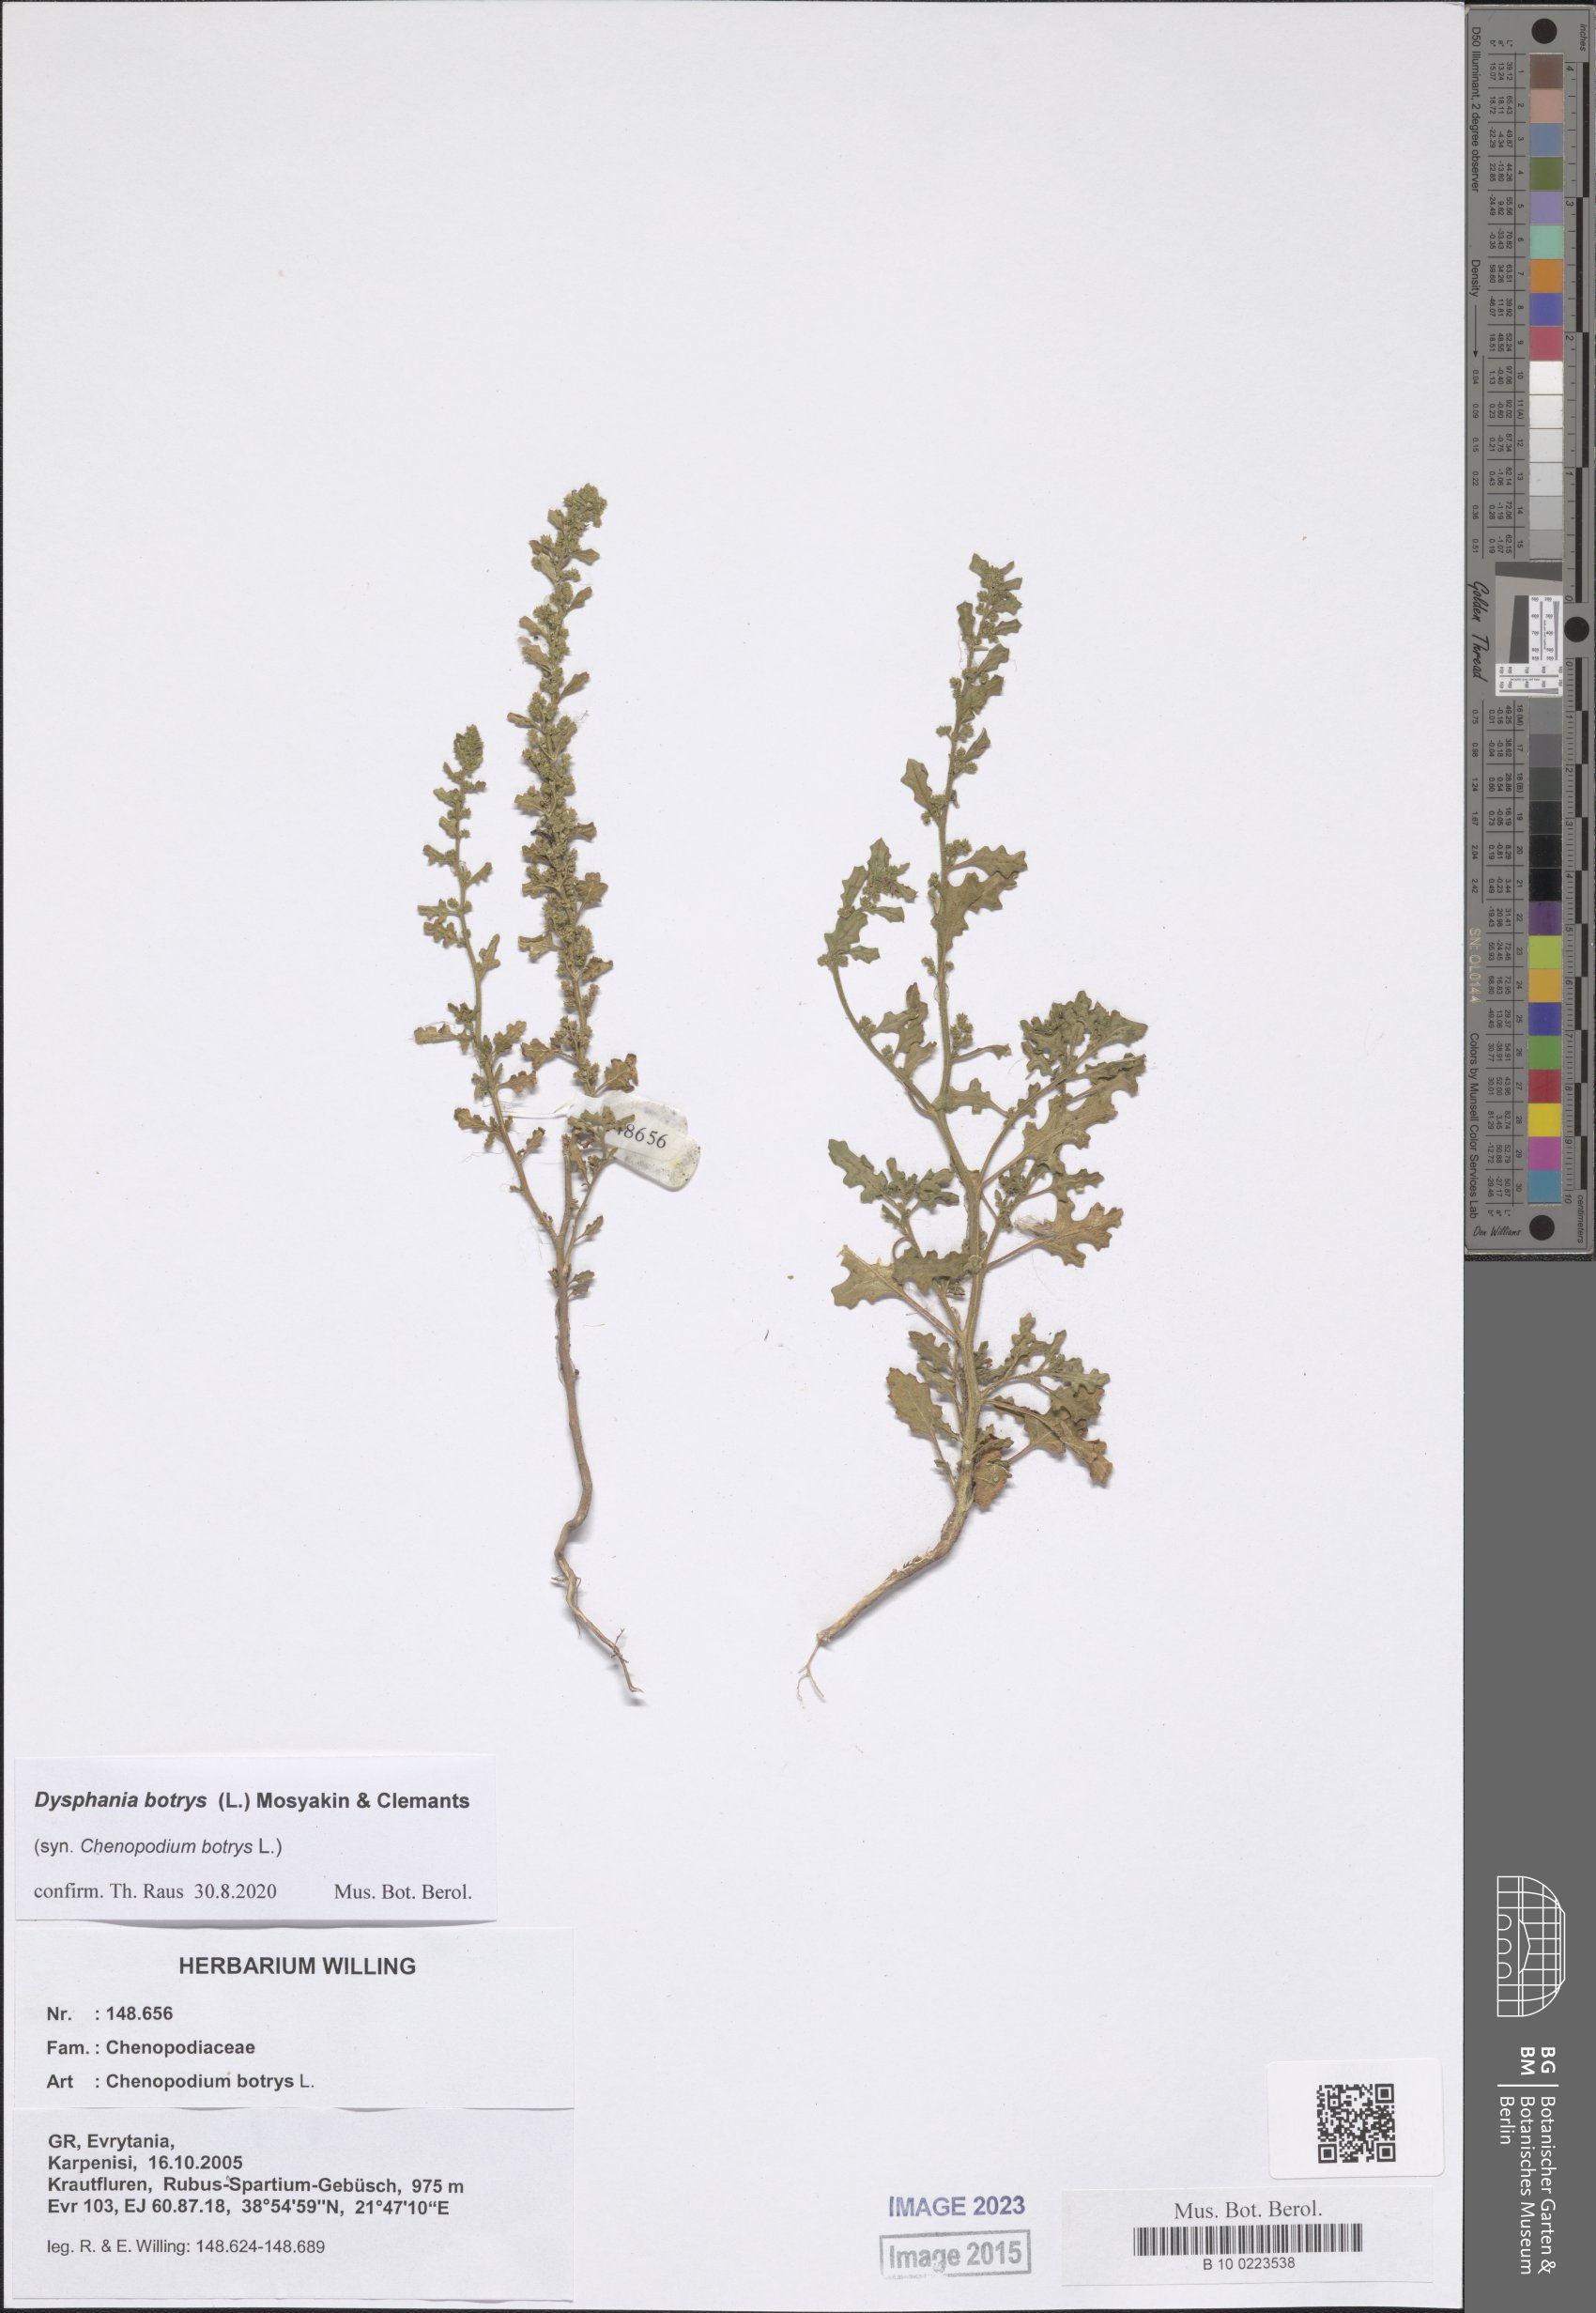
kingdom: Plantae
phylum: Tracheophyta
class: Magnoliopsida
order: Caryophyllales
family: Amaranthaceae
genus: Dysphania
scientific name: Dysphania botrys
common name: Feather-geranium
